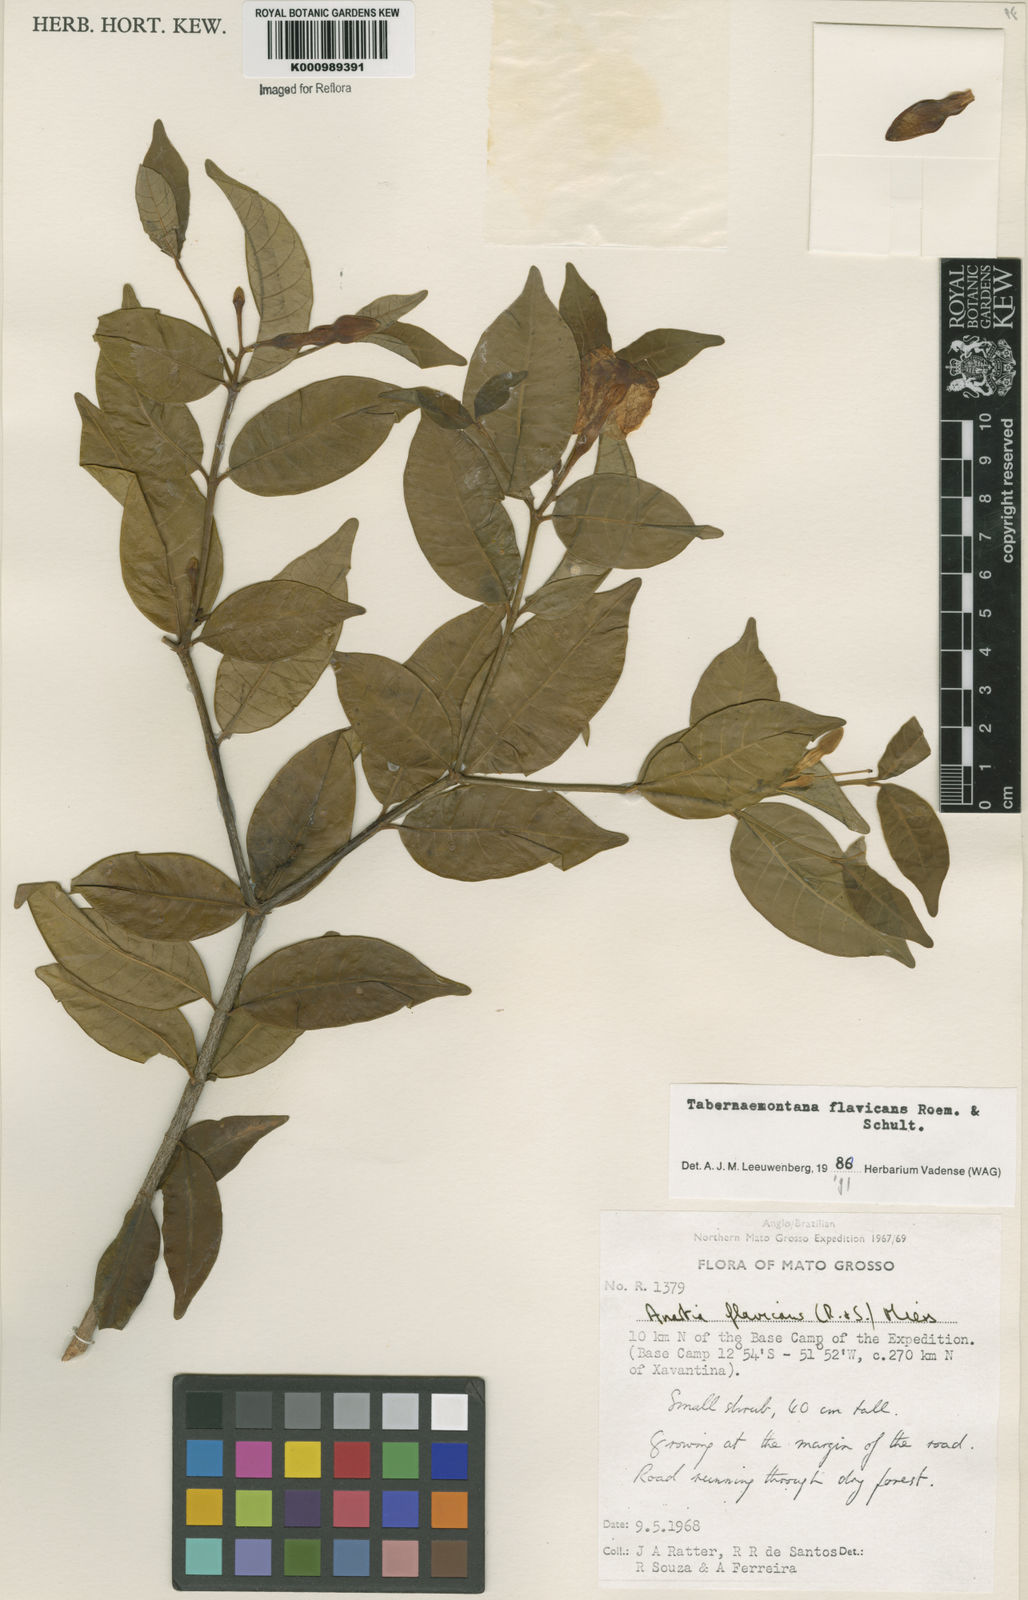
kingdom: Plantae
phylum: Tracheophyta
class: Magnoliopsida
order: Gentianales
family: Apocynaceae
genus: Tabernaemontana
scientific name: Tabernaemontana flavicans
